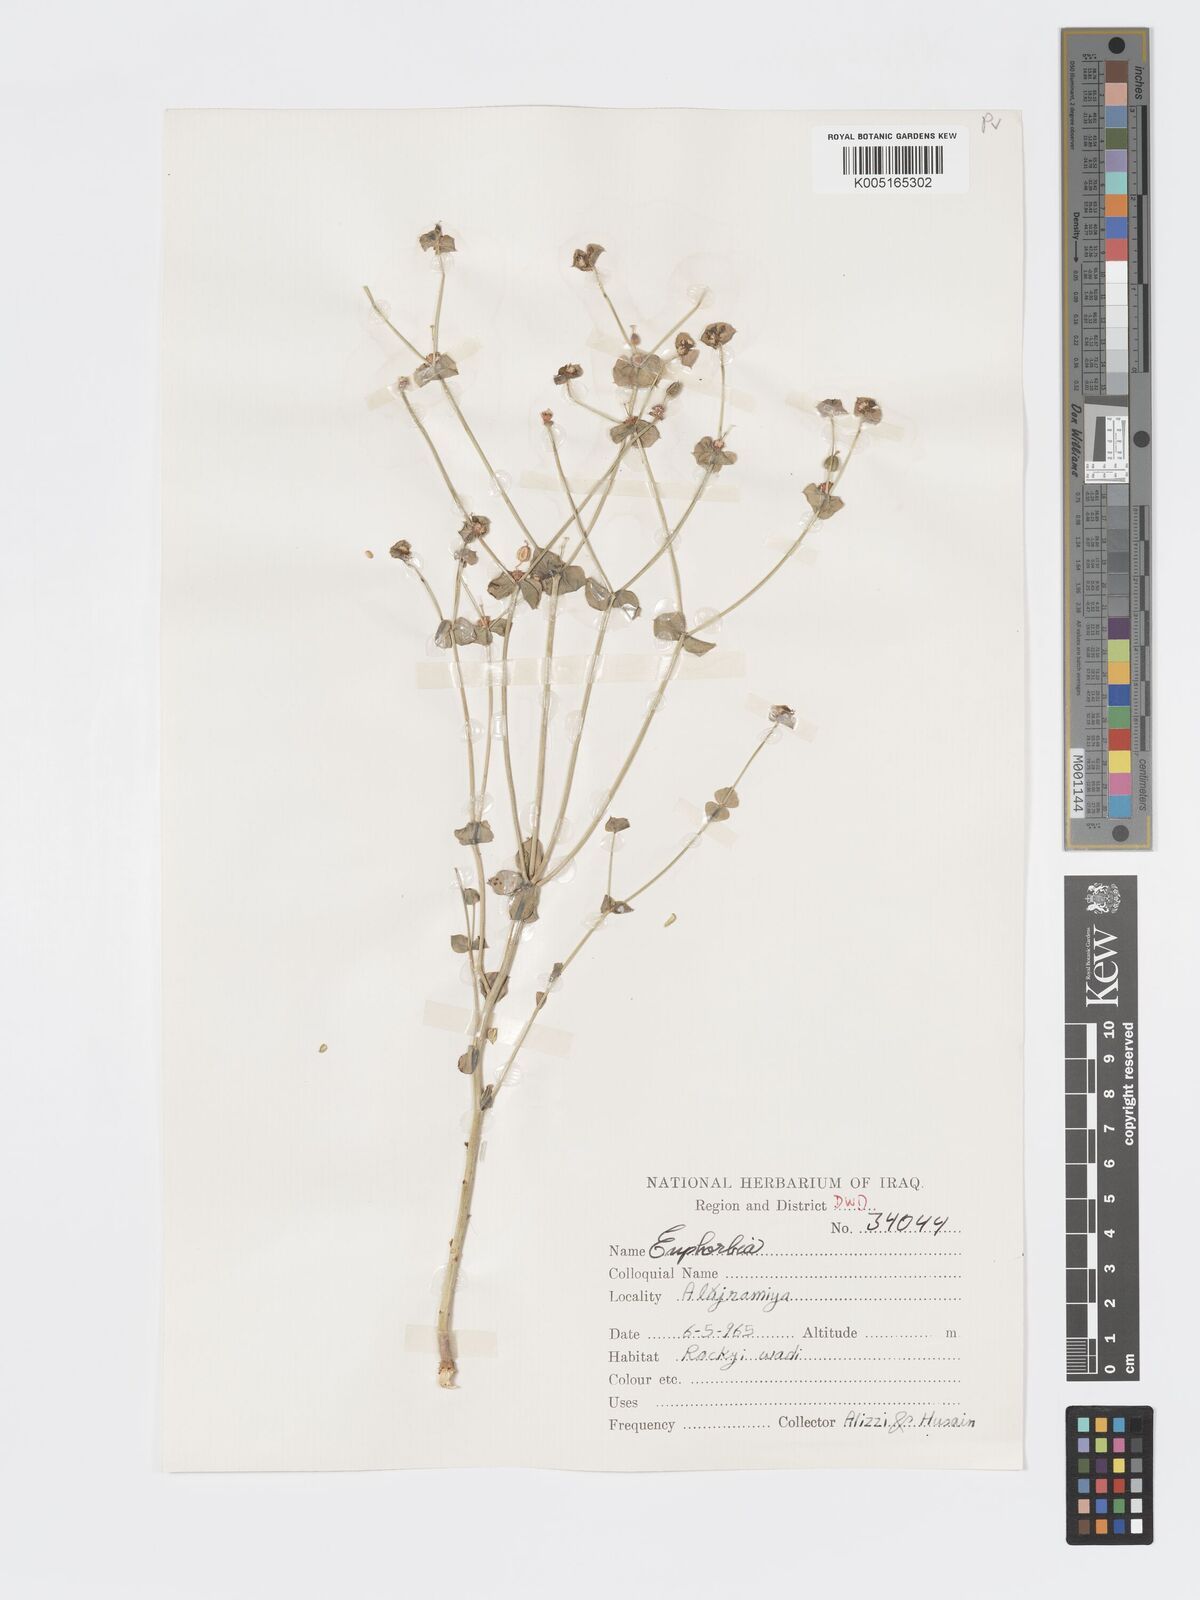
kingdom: Plantae
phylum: Tracheophyta
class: Magnoliopsida
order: Malpighiales
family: Euphorbiaceae
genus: Euphorbia
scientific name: Euphorbia
